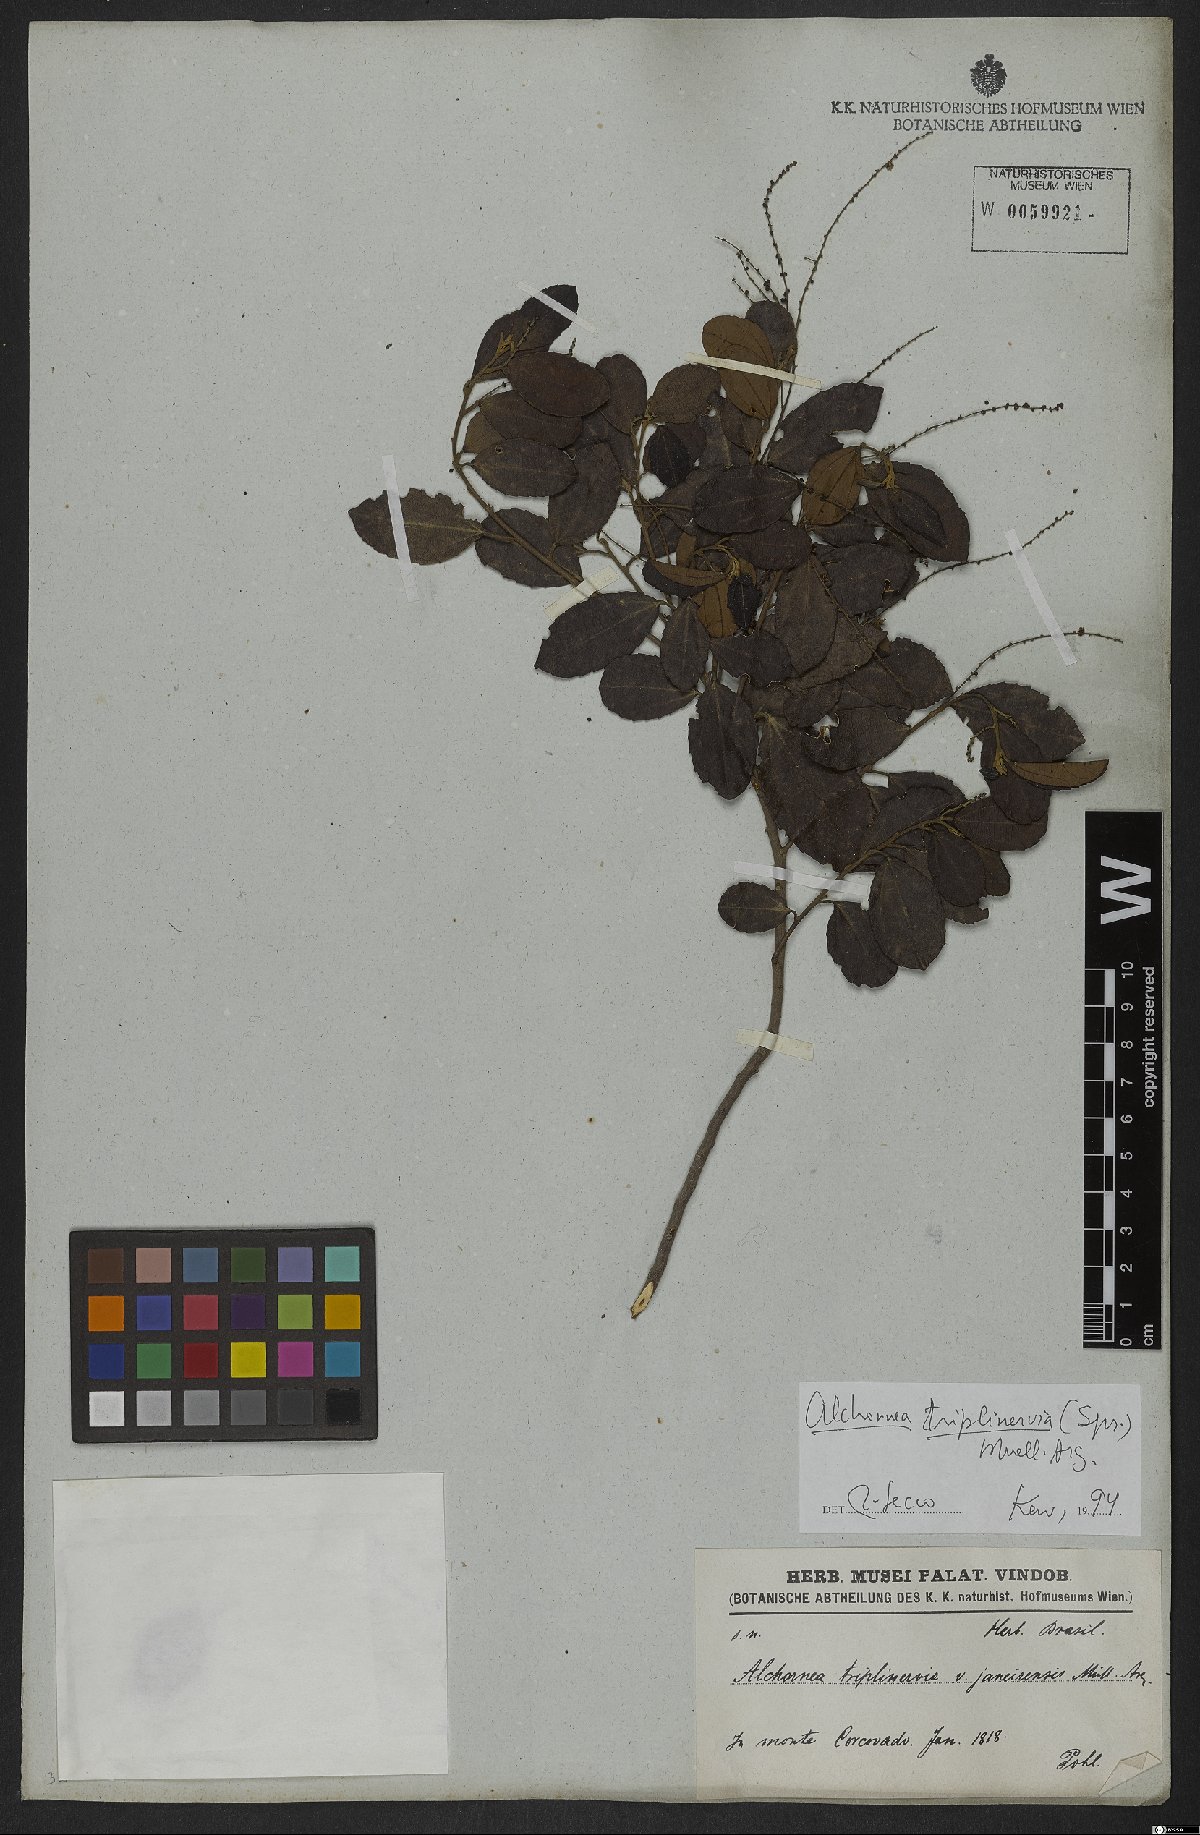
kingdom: Plantae
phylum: Tracheophyta
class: Magnoliopsida
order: Malpighiales
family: Euphorbiaceae
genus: Alchornea
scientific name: Alchornea triplinervia
